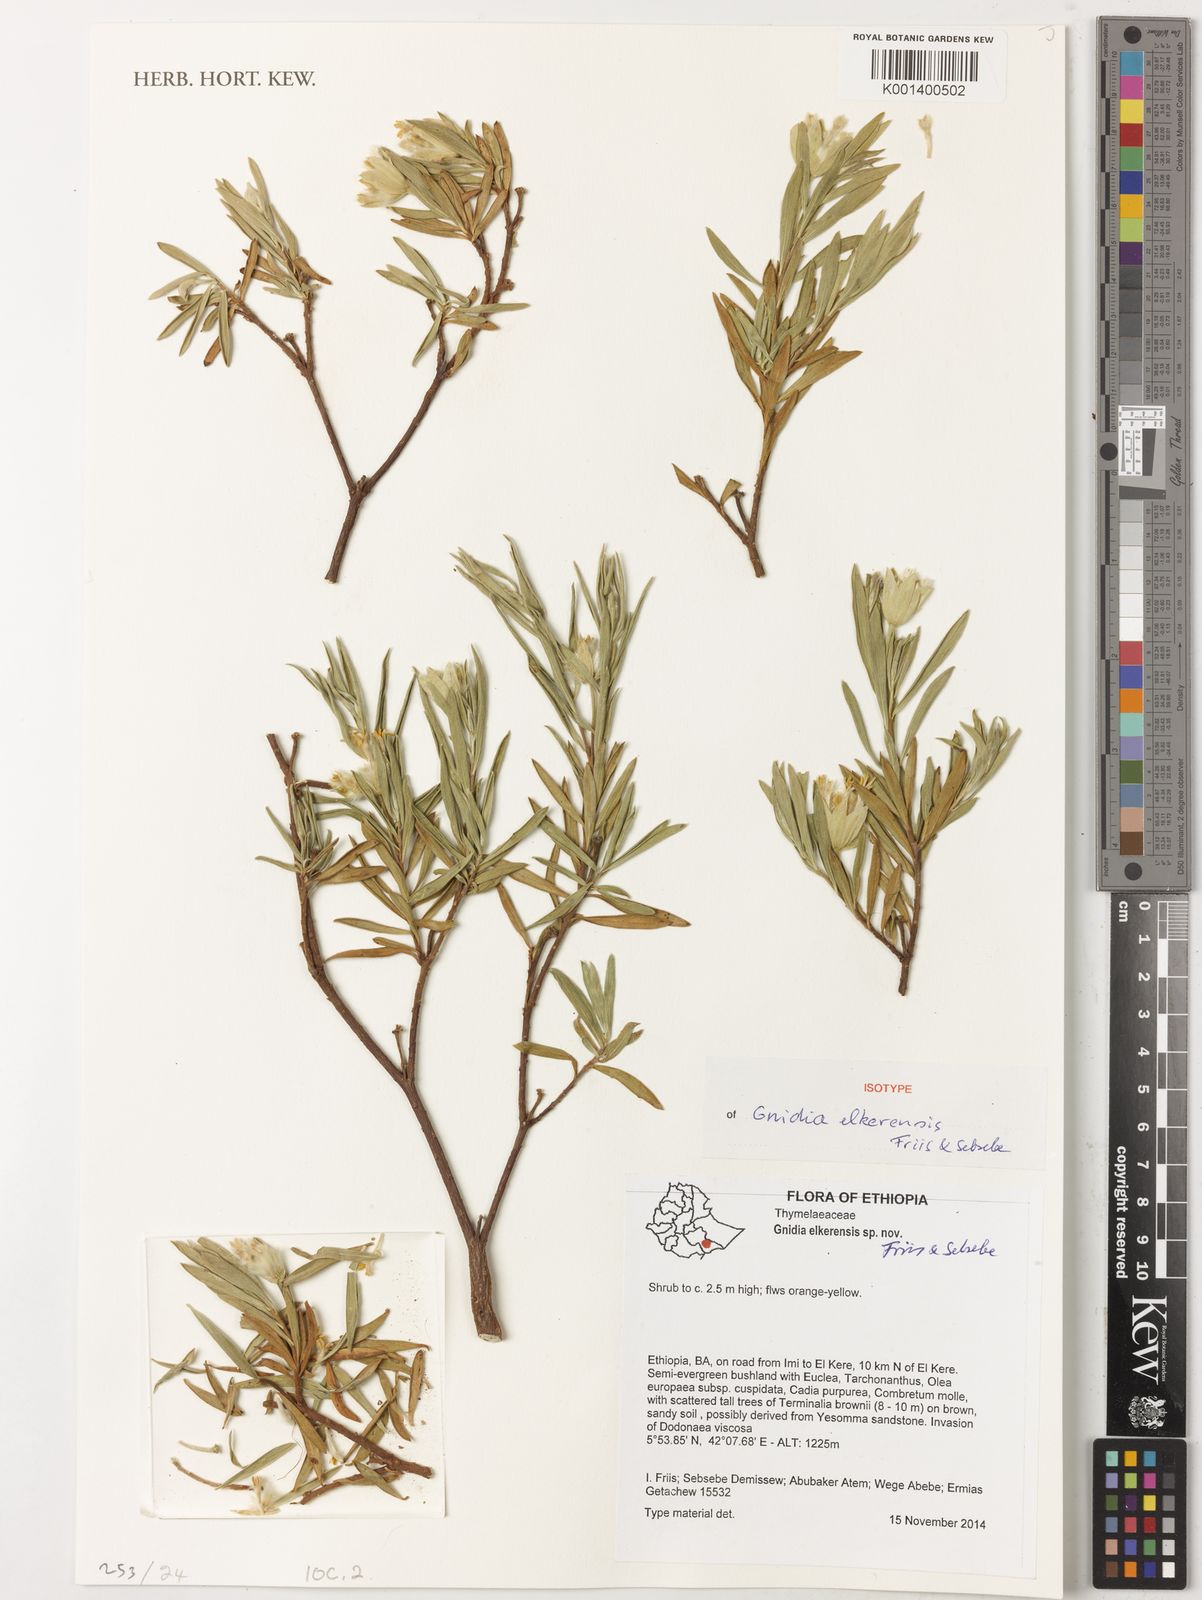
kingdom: Plantae
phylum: Tracheophyta
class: Magnoliopsida
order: Malvales
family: Thymelaeaceae
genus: Gnidia
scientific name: Gnidia elkerensis
